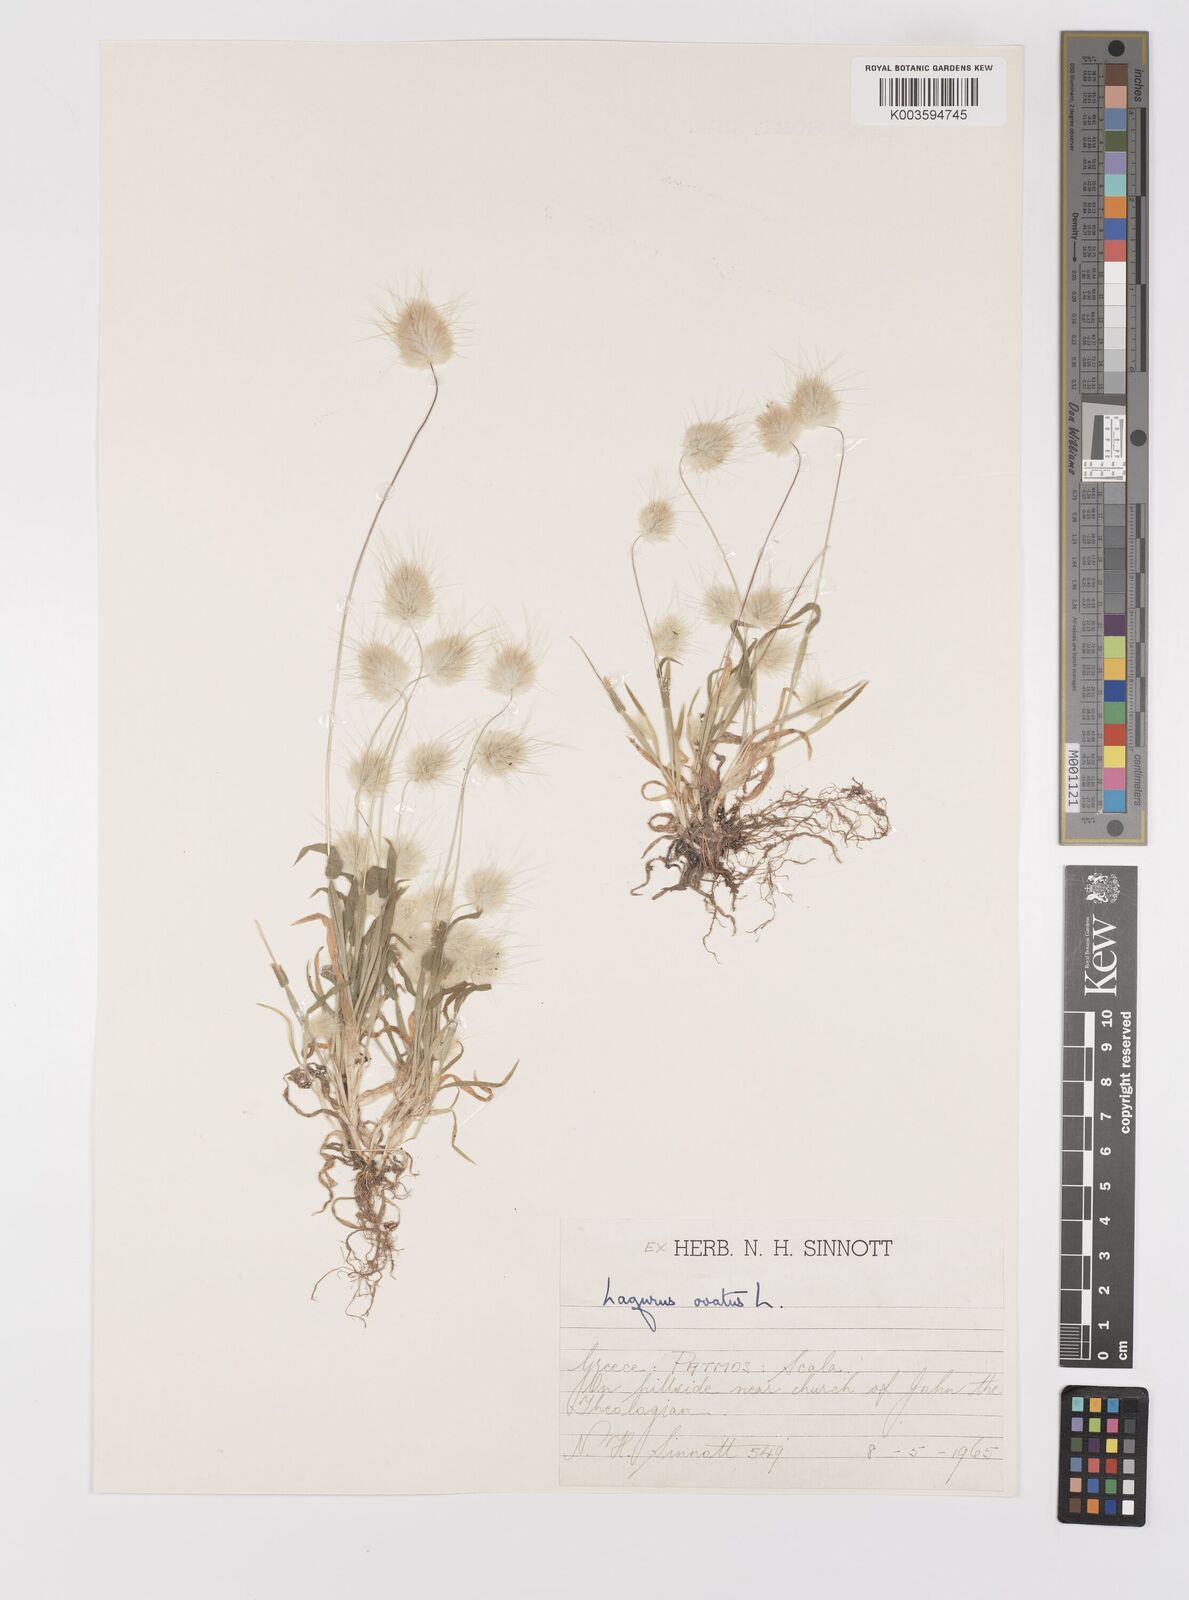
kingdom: Plantae
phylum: Tracheophyta
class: Liliopsida
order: Poales
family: Poaceae
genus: Lagurus
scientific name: Lagurus ovatus
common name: Hare's-tail
